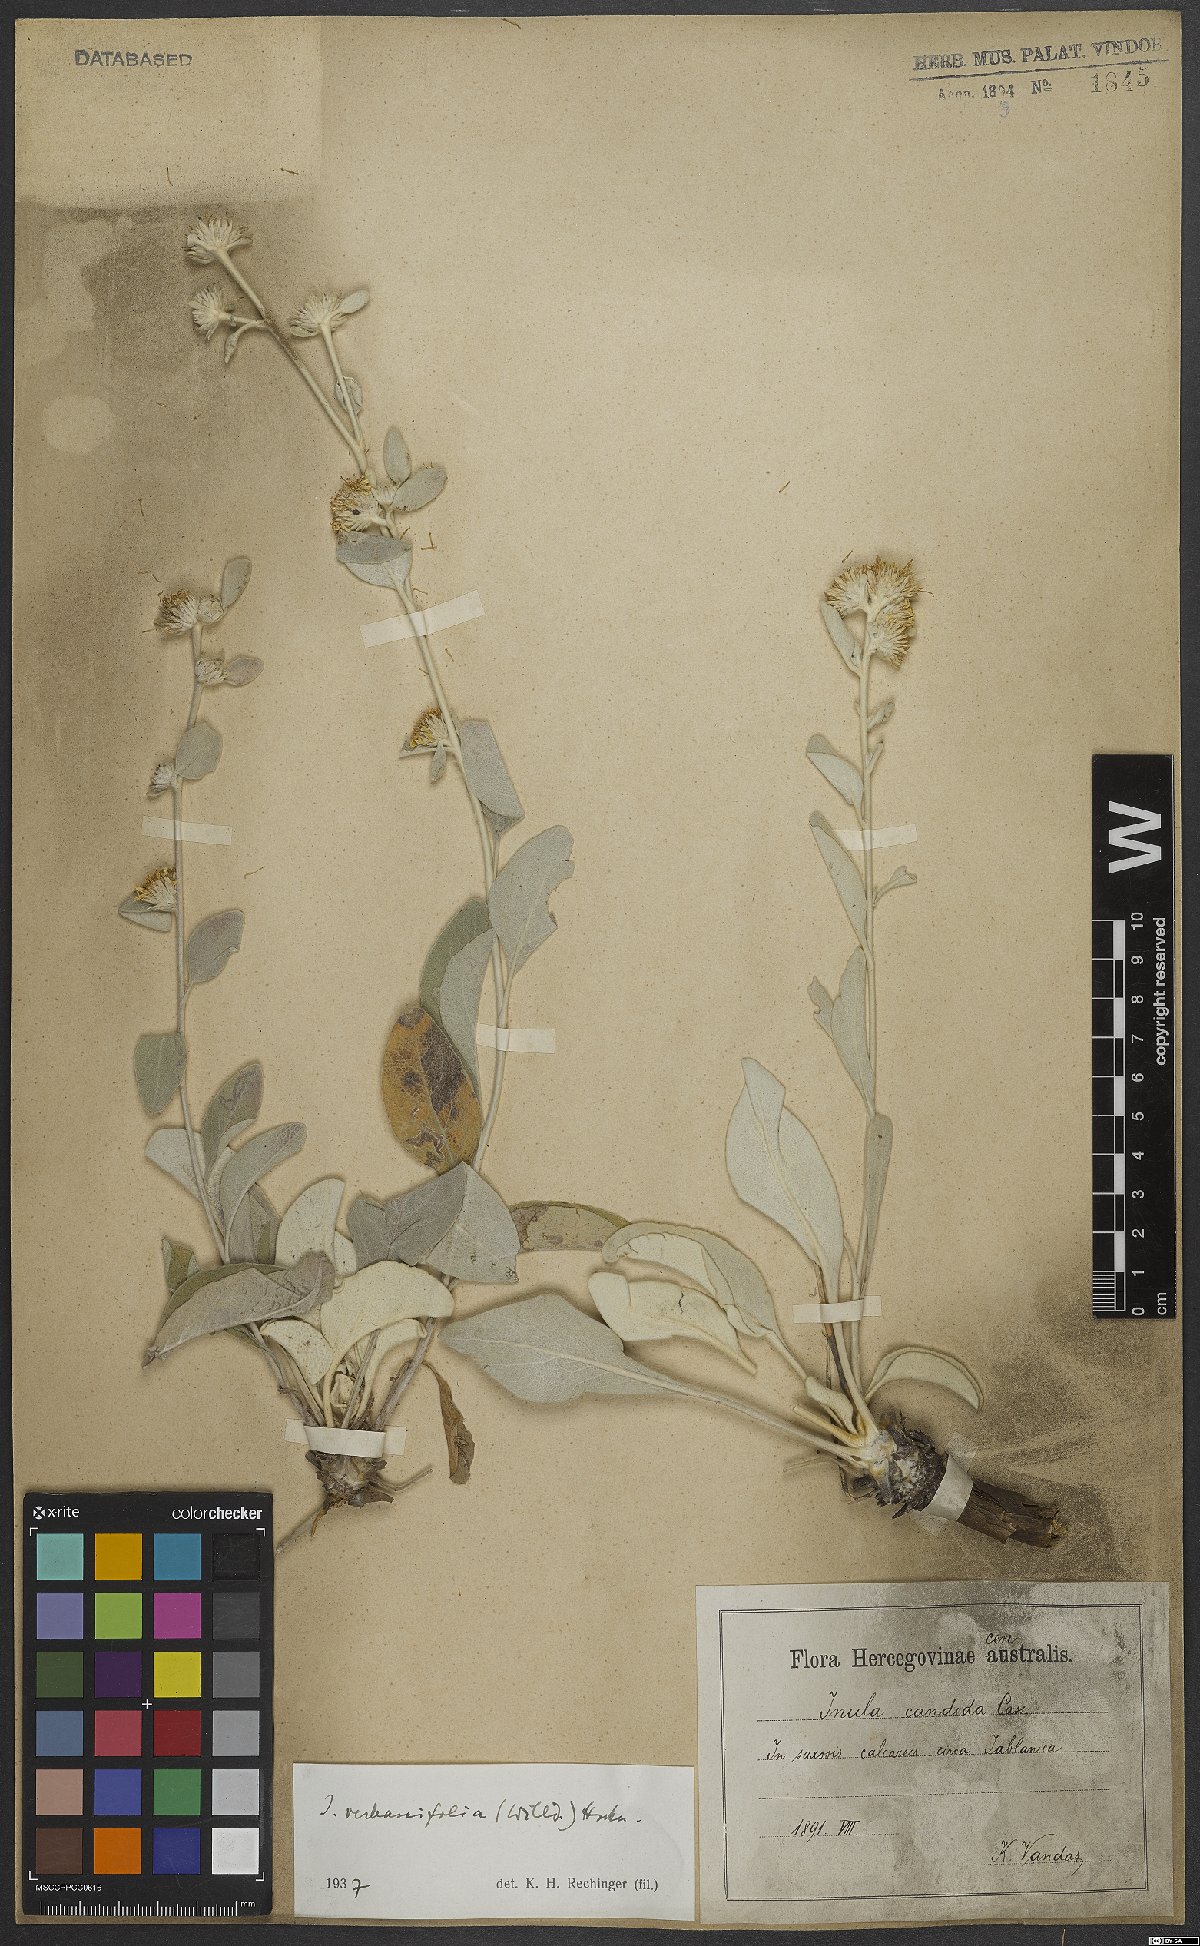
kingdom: Plantae
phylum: Tracheophyta
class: Magnoliopsida
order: Asterales
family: Asteraceae
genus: Pentanema
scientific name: Pentanema verbascifolium
